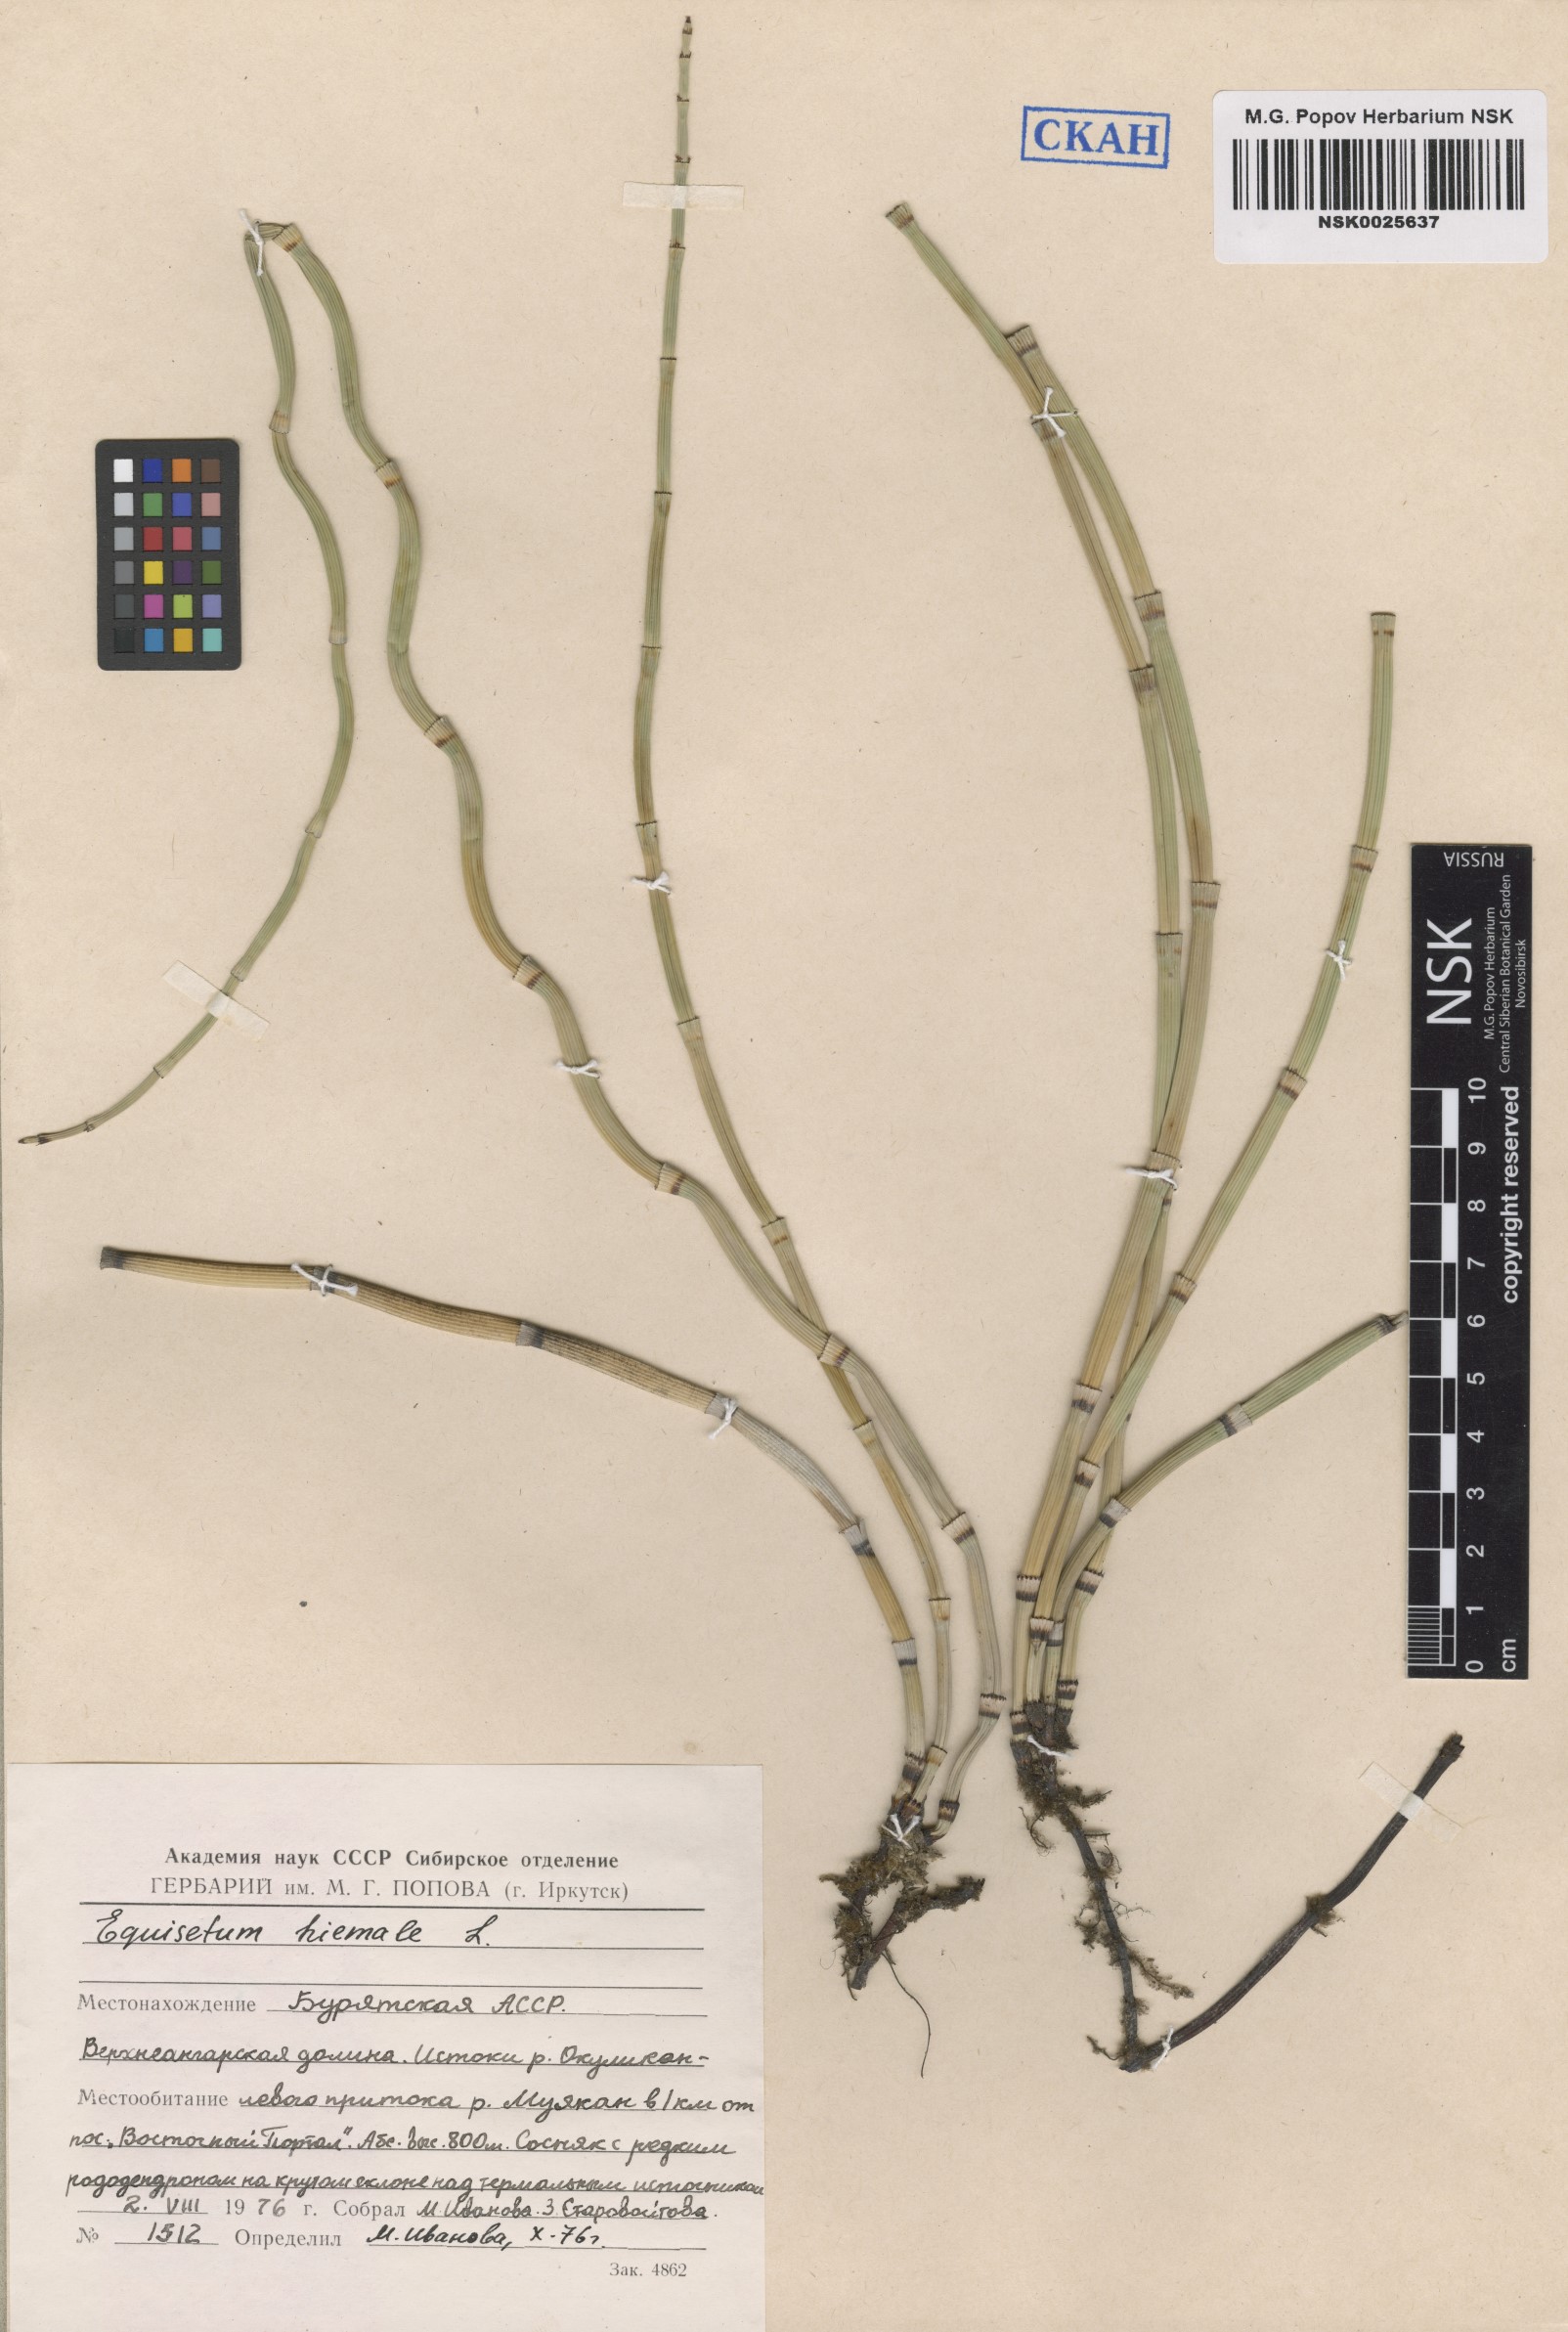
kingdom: Plantae
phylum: Tracheophyta
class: Polypodiopsida
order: Equisetales
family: Equisetaceae
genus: Equisetum
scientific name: Equisetum hyemale
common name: Rough horsetail
